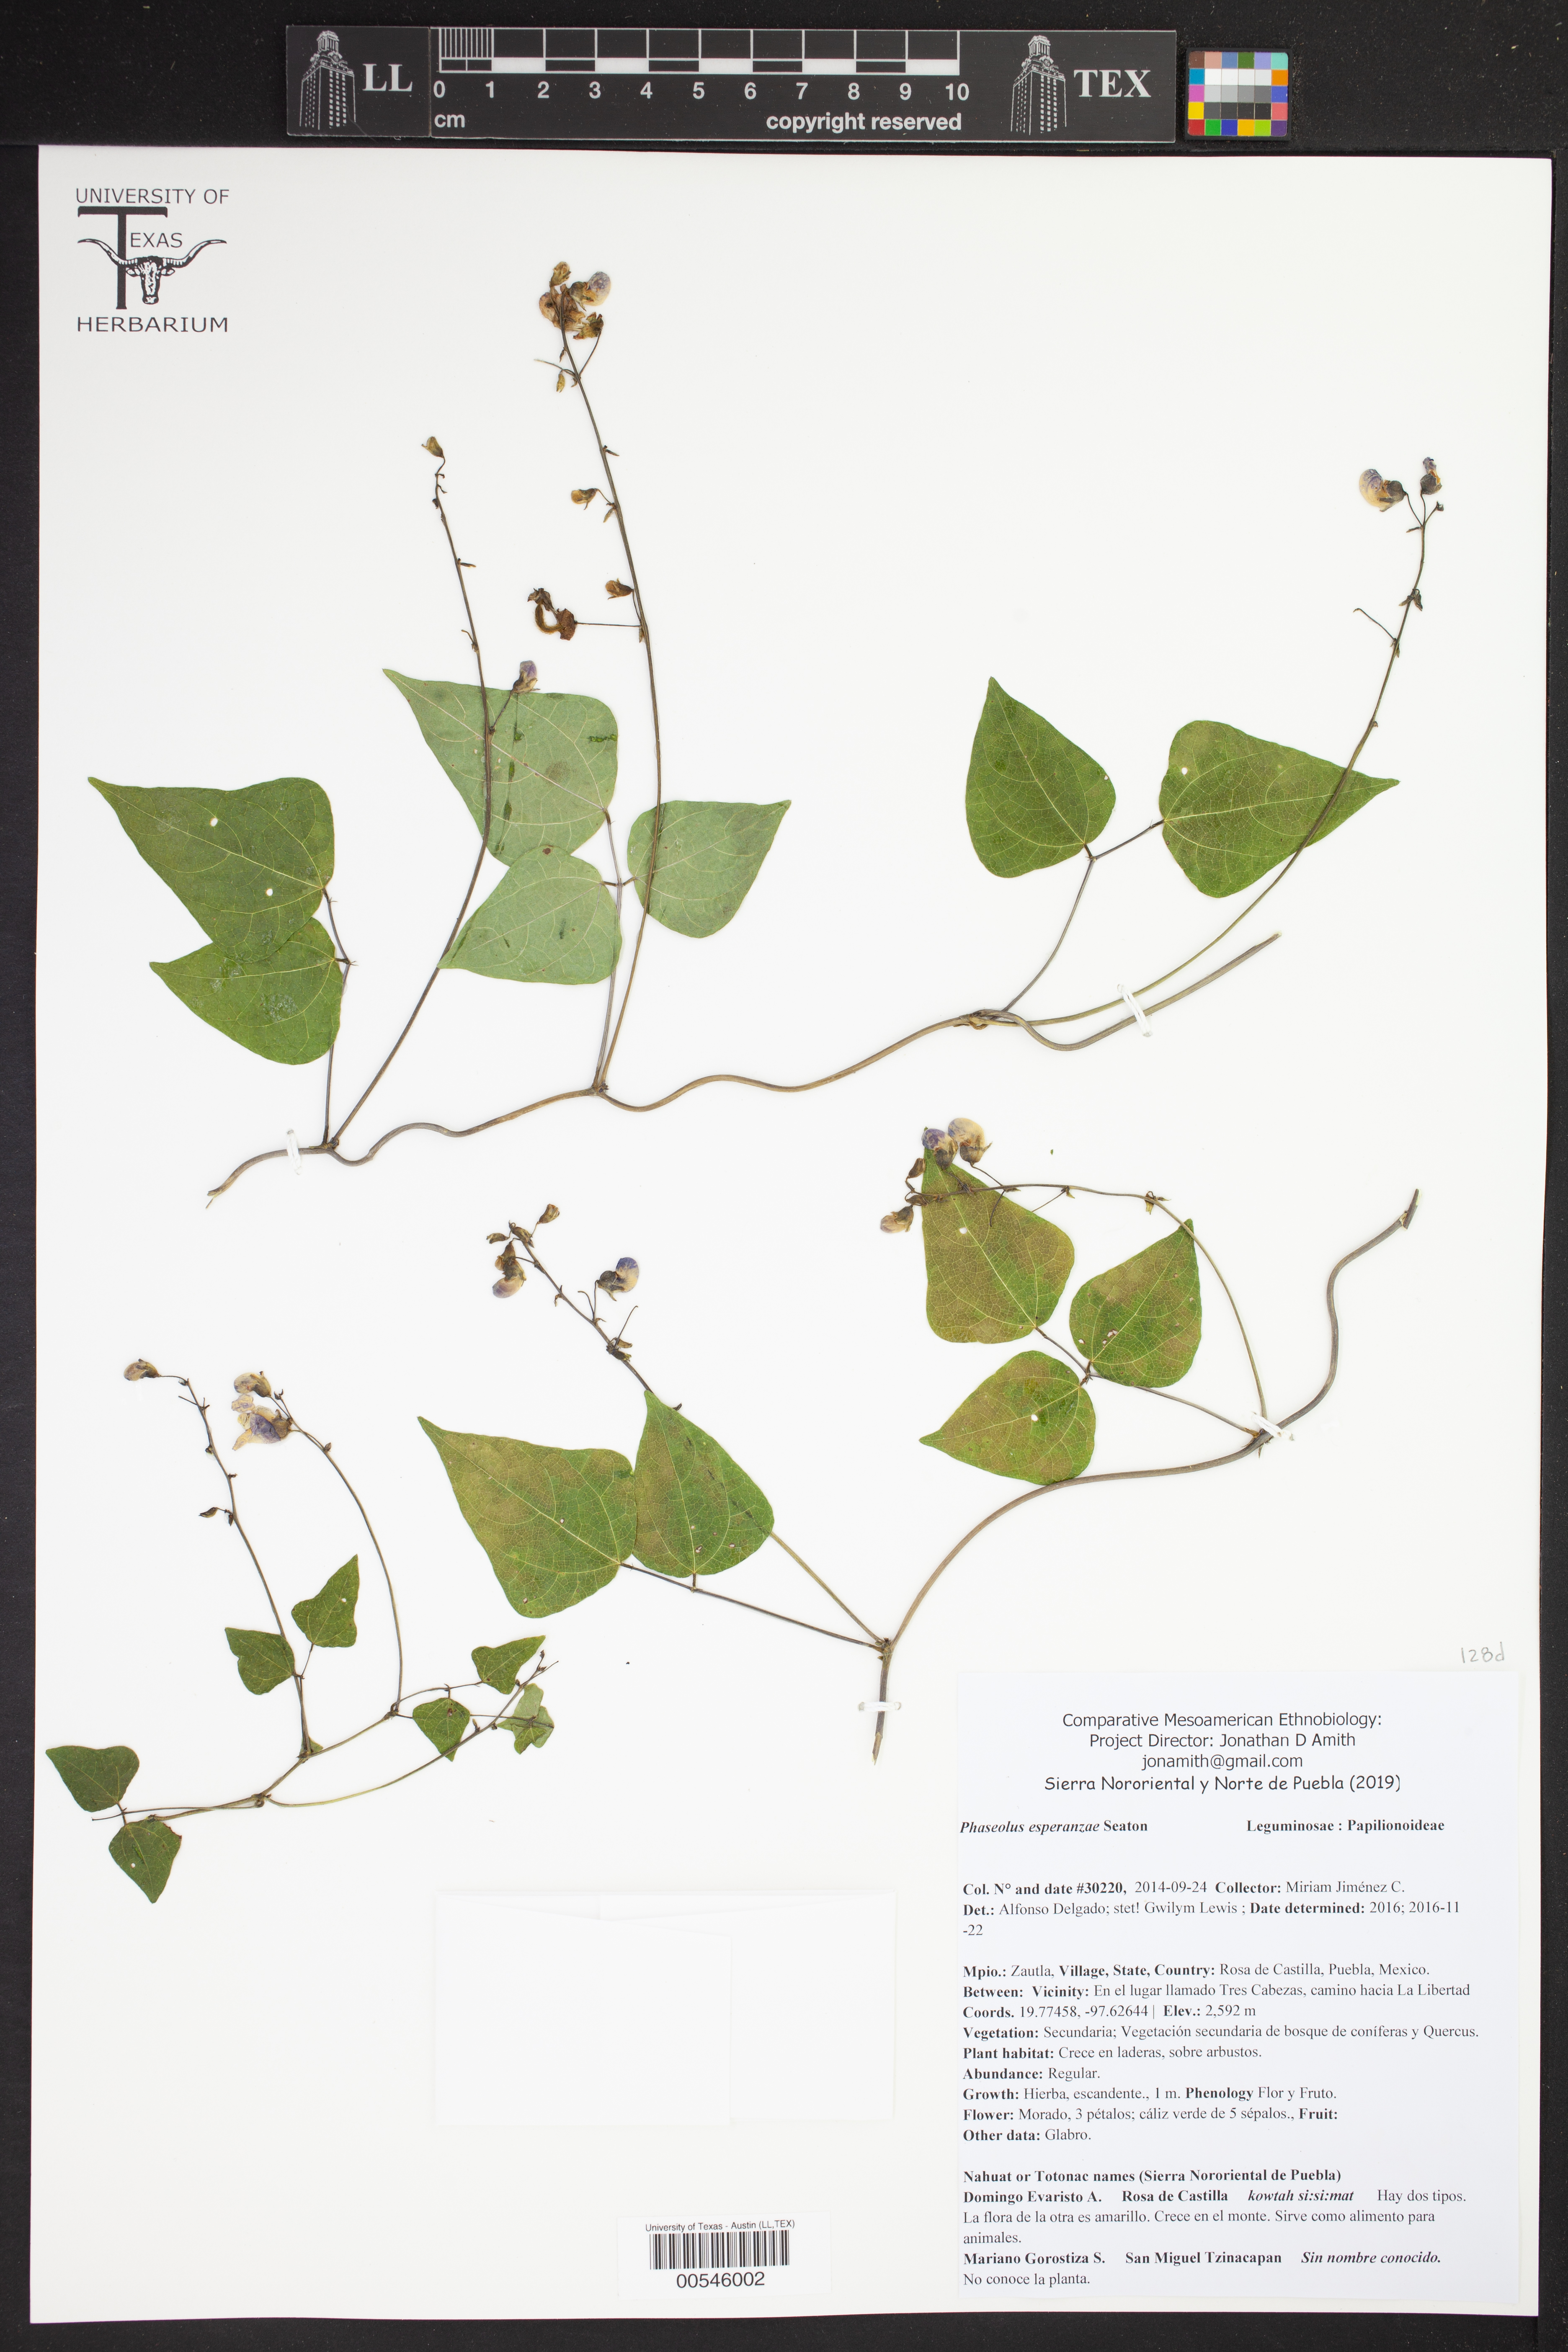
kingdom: Plantae
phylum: Tracheophyta
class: Magnoliopsida
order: Fabales
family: Fabaceae
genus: Phaseolus
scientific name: Phaseolus esperanzae
